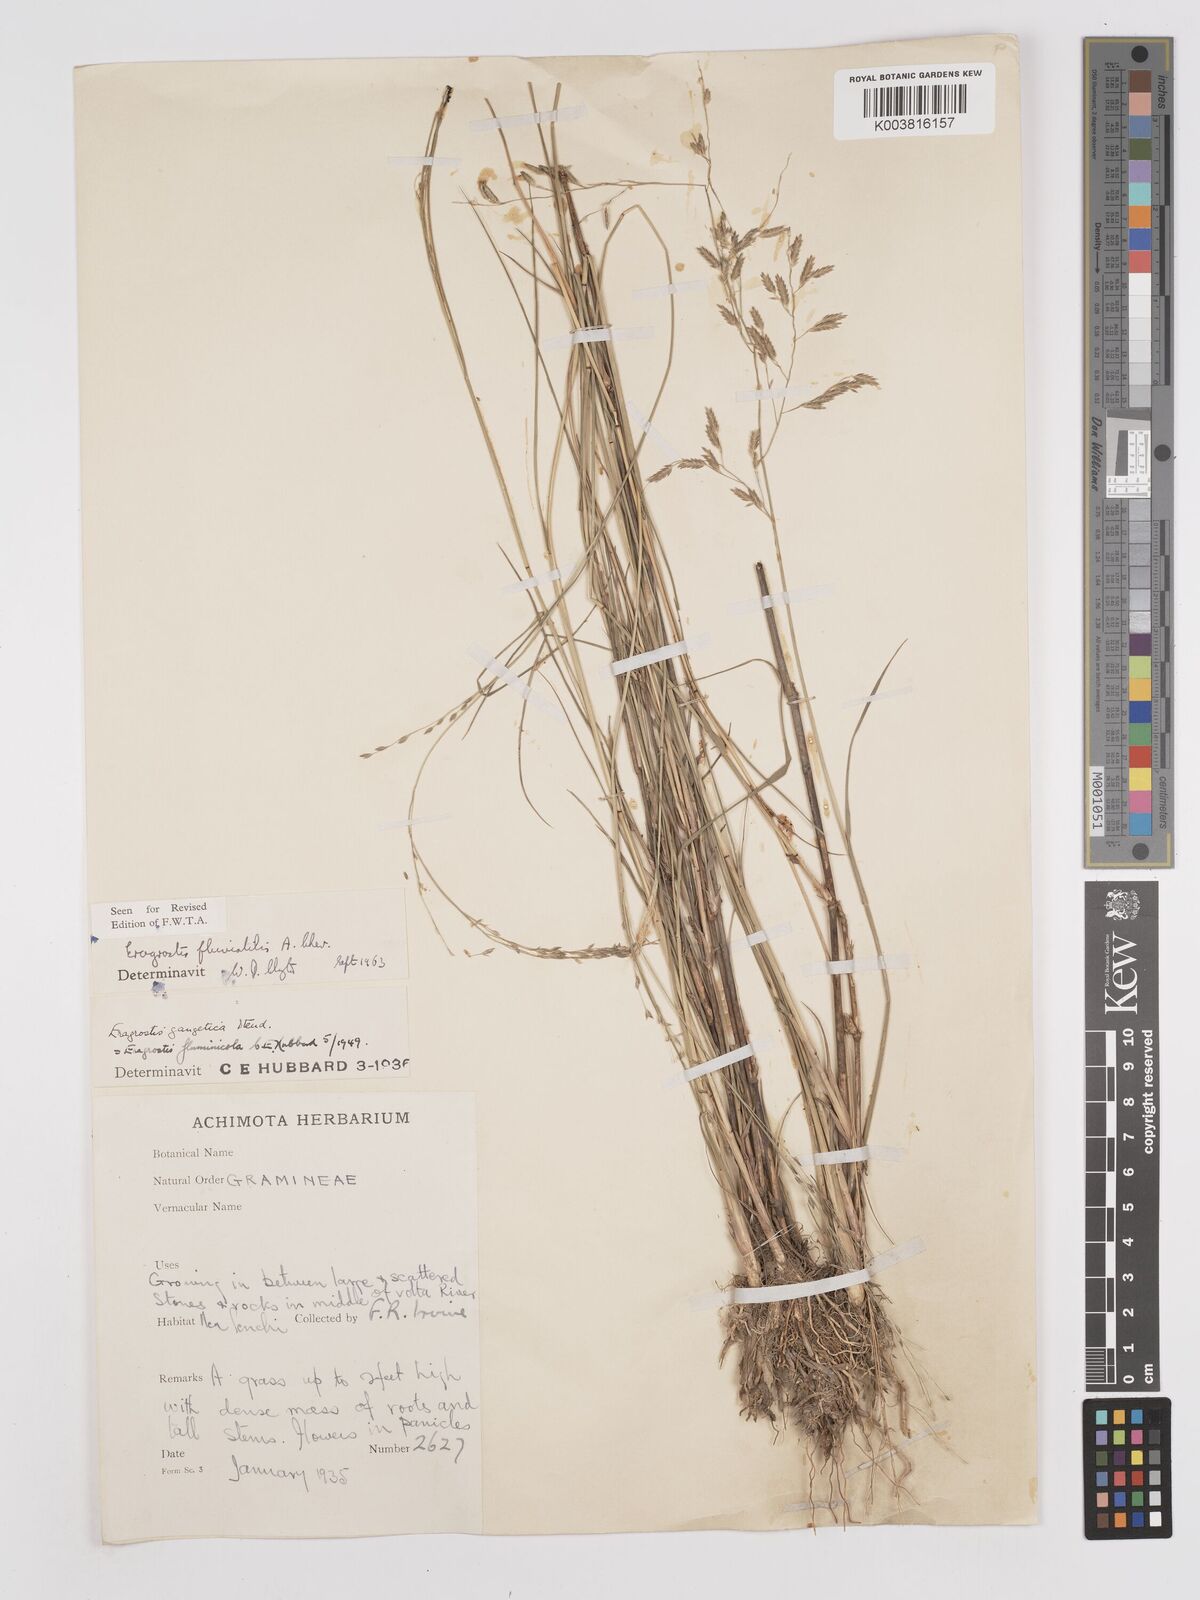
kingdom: Plantae
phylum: Tracheophyta
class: Liliopsida
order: Poales
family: Poaceae
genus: Eragrostis
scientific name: Eragrostis barteri
